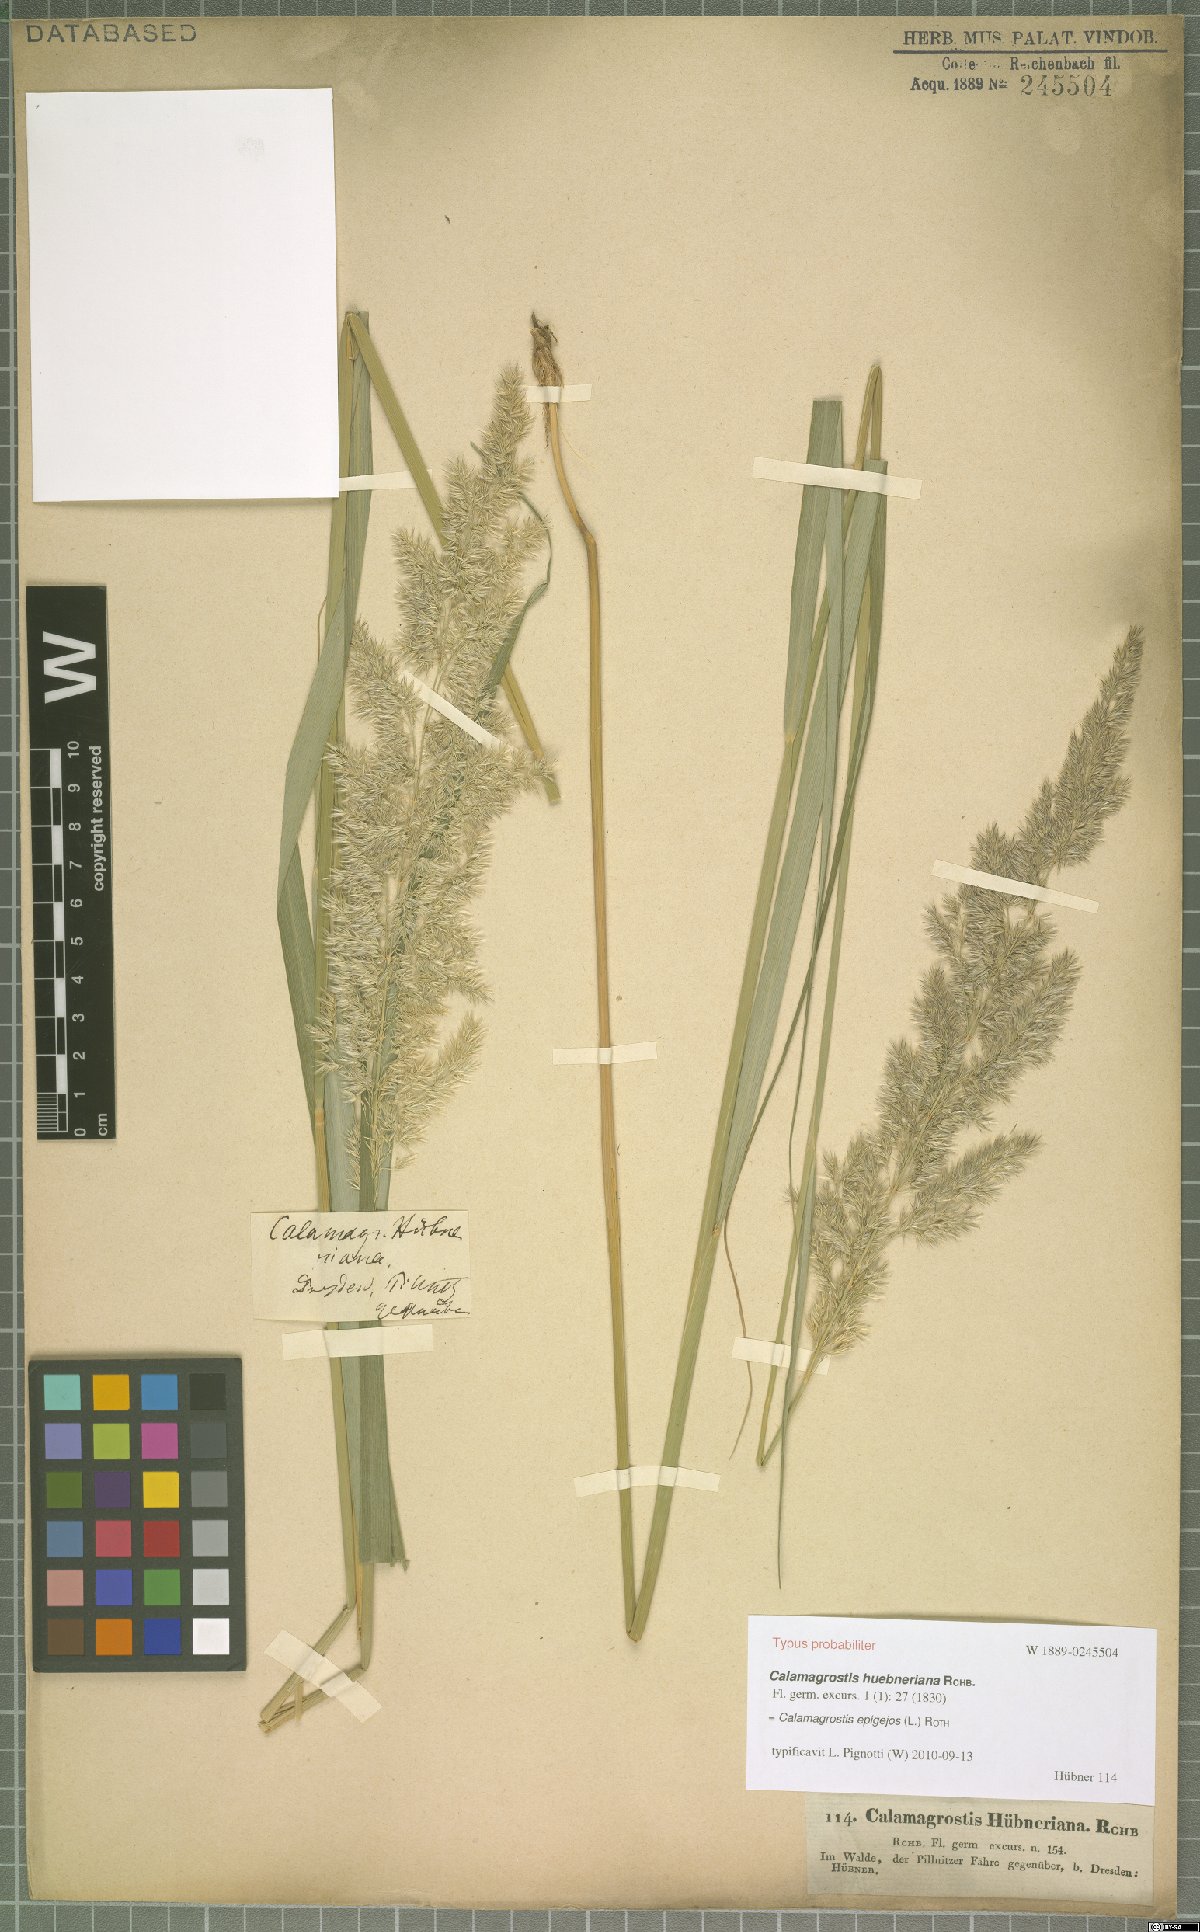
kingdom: Plantae
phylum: Tracheophyta
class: Liliopsida
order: Poales
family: Poaceae
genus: Calamagrostis
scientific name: Calamagrostis epigejos
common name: Wood small-reed
